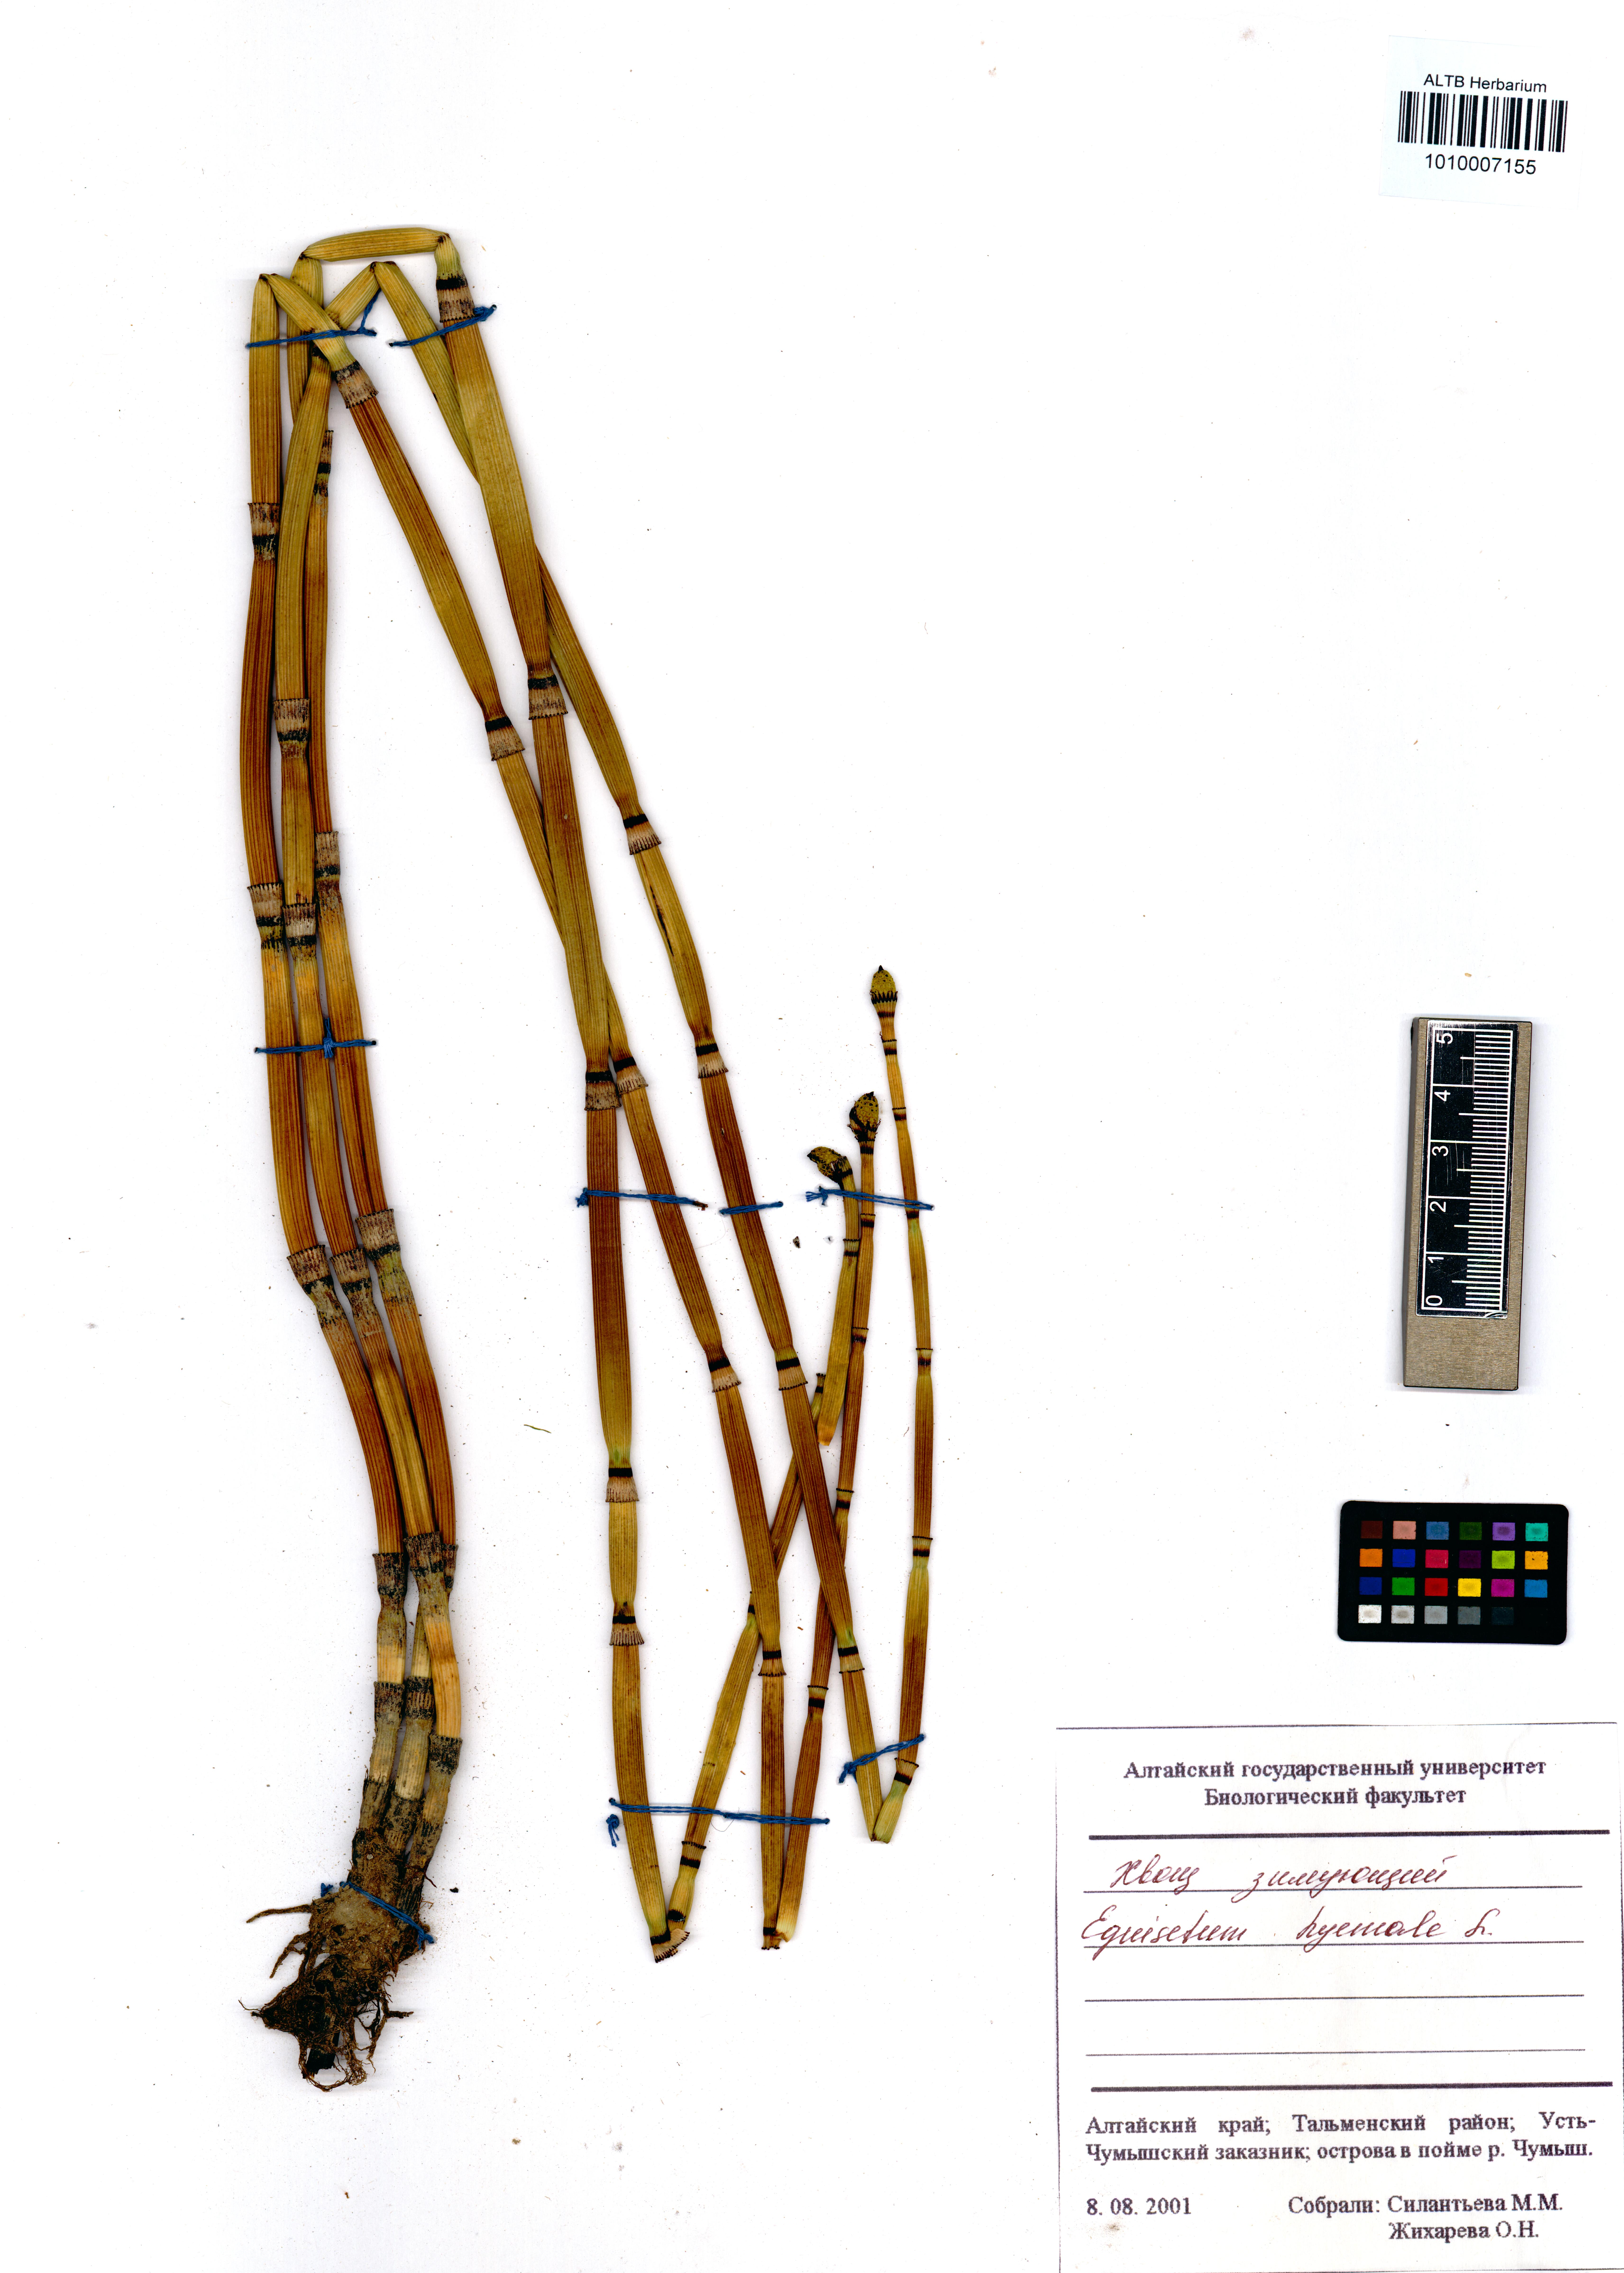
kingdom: Plantae
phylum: Tracheophyta
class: Polypodiopsida
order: Equisetales
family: Equisetaceae
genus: Equisetum
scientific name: Equisetum hyemale
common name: Rough horsetail
